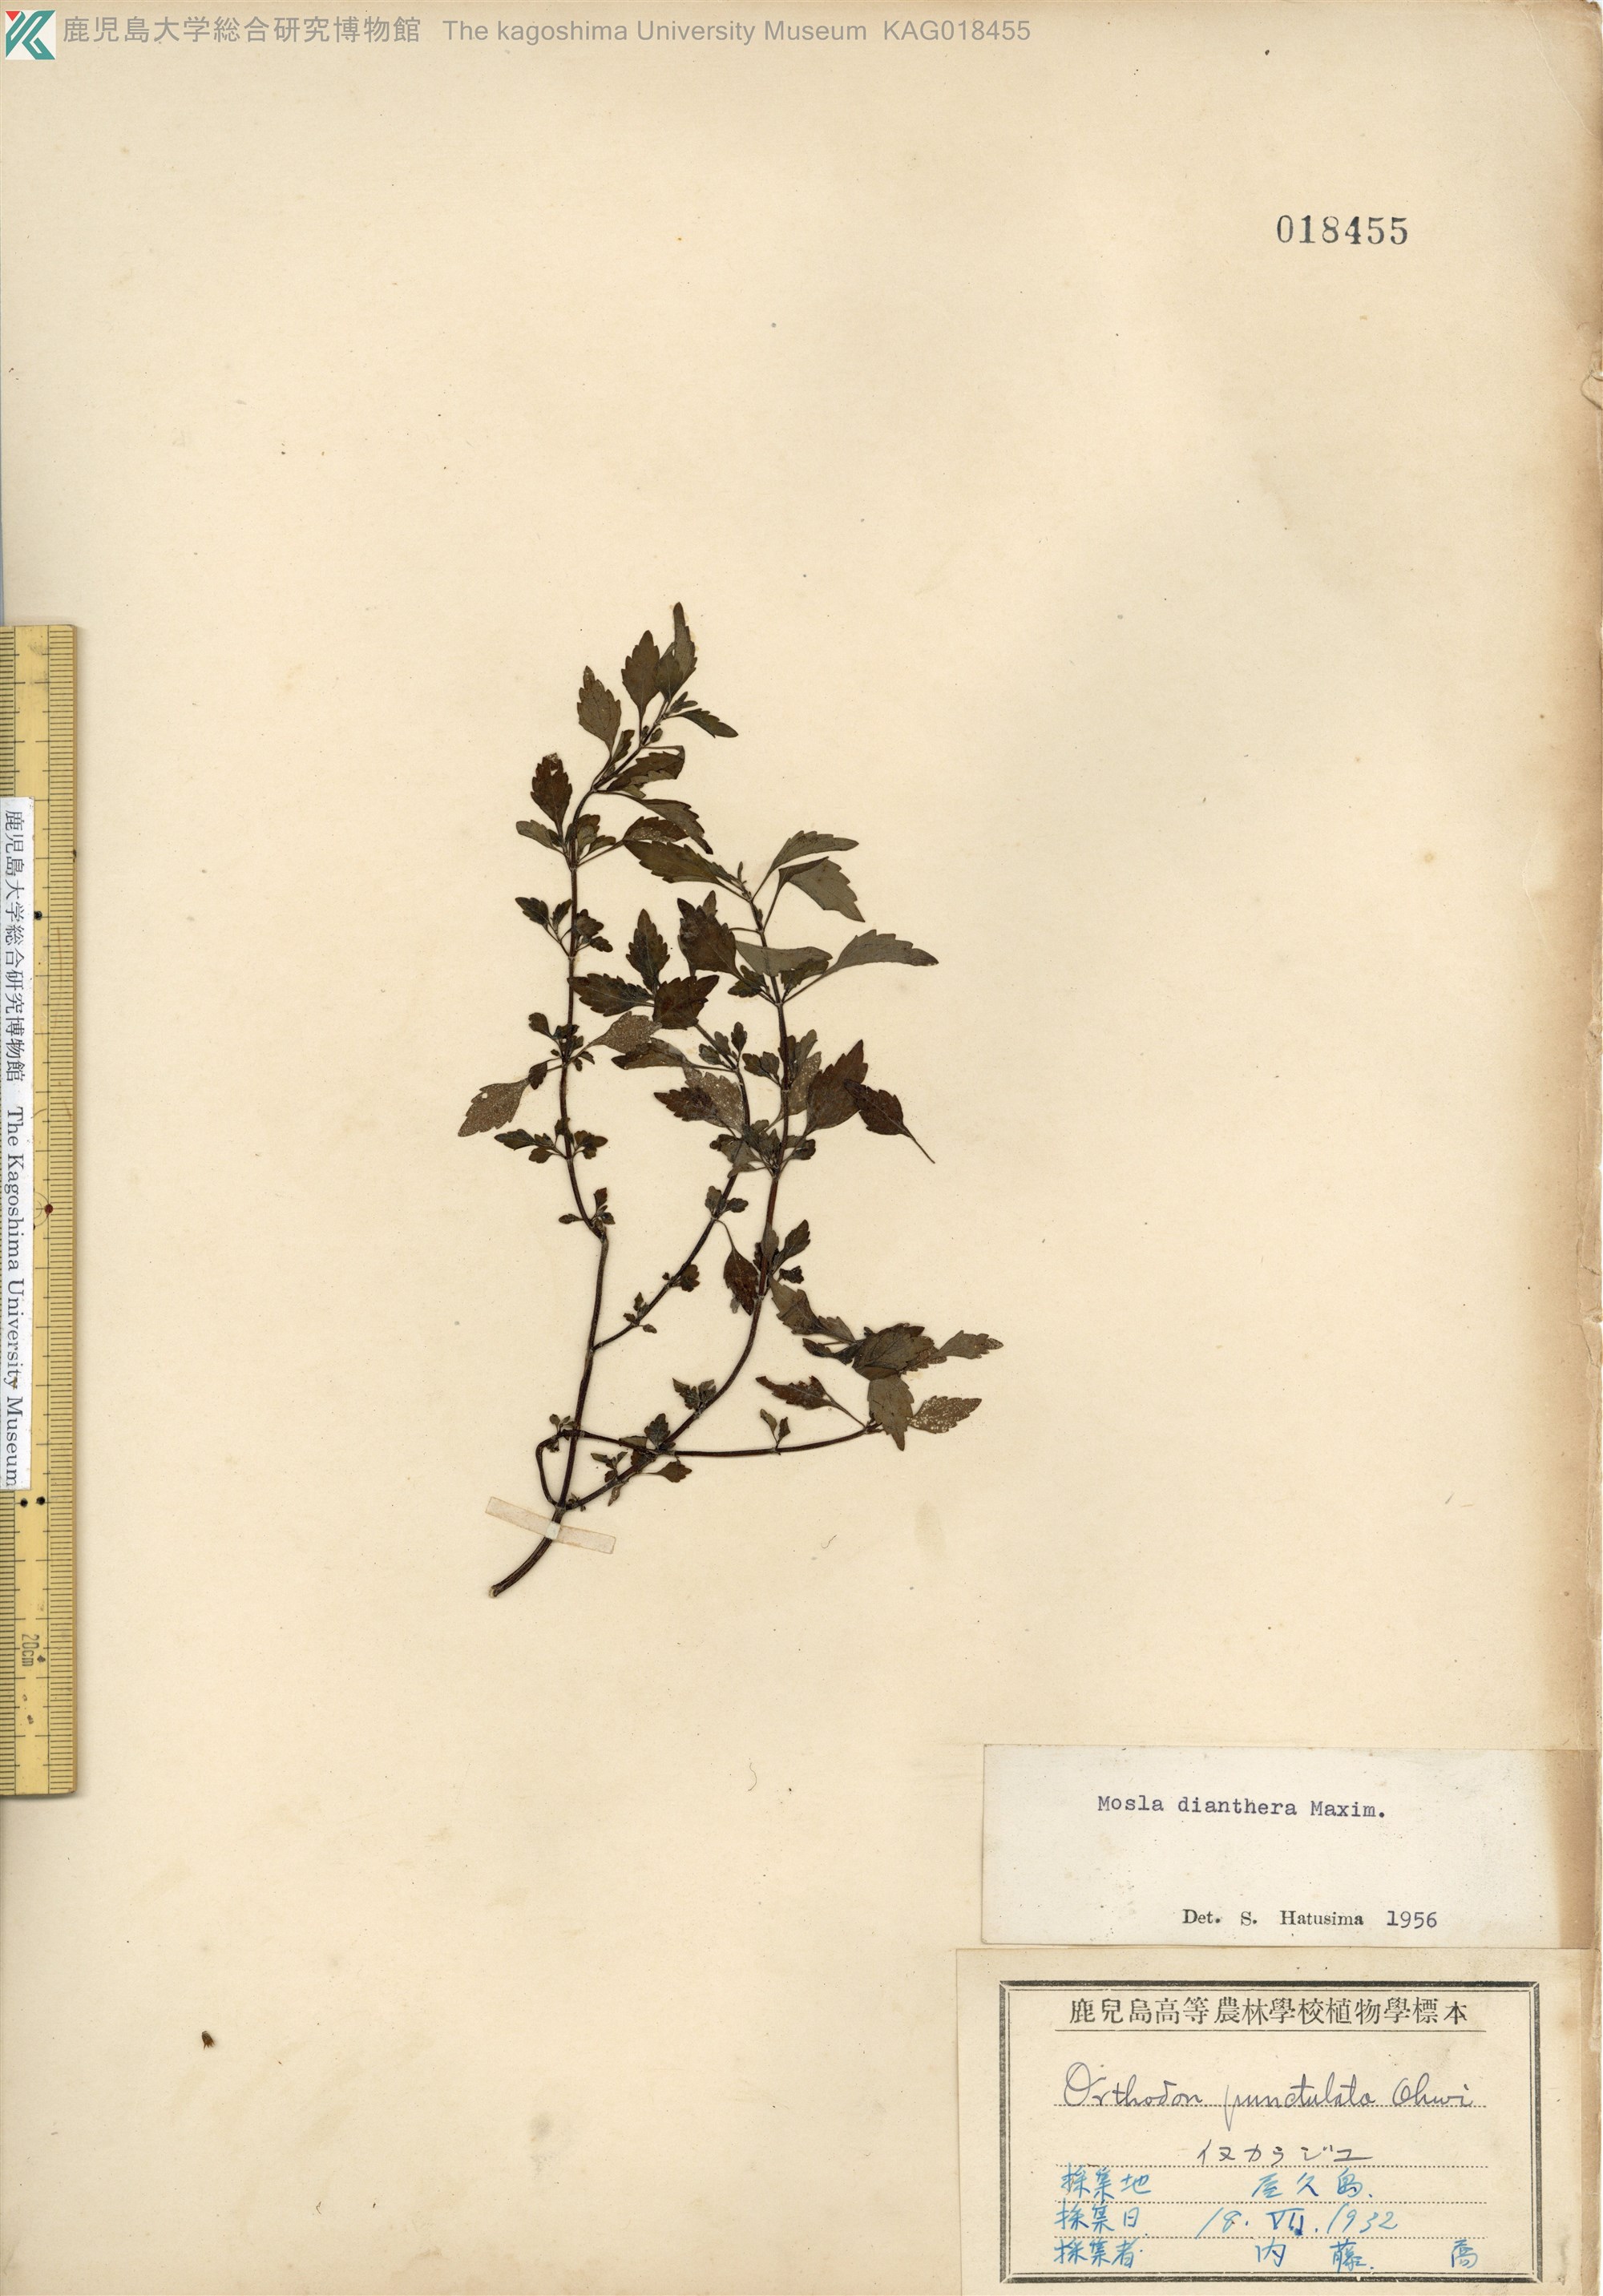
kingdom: Plantae
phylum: Tracheophyta
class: Magnoliopsida
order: Lamiales
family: Lamiaceae
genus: Mosla
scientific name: Mosla dianthera
